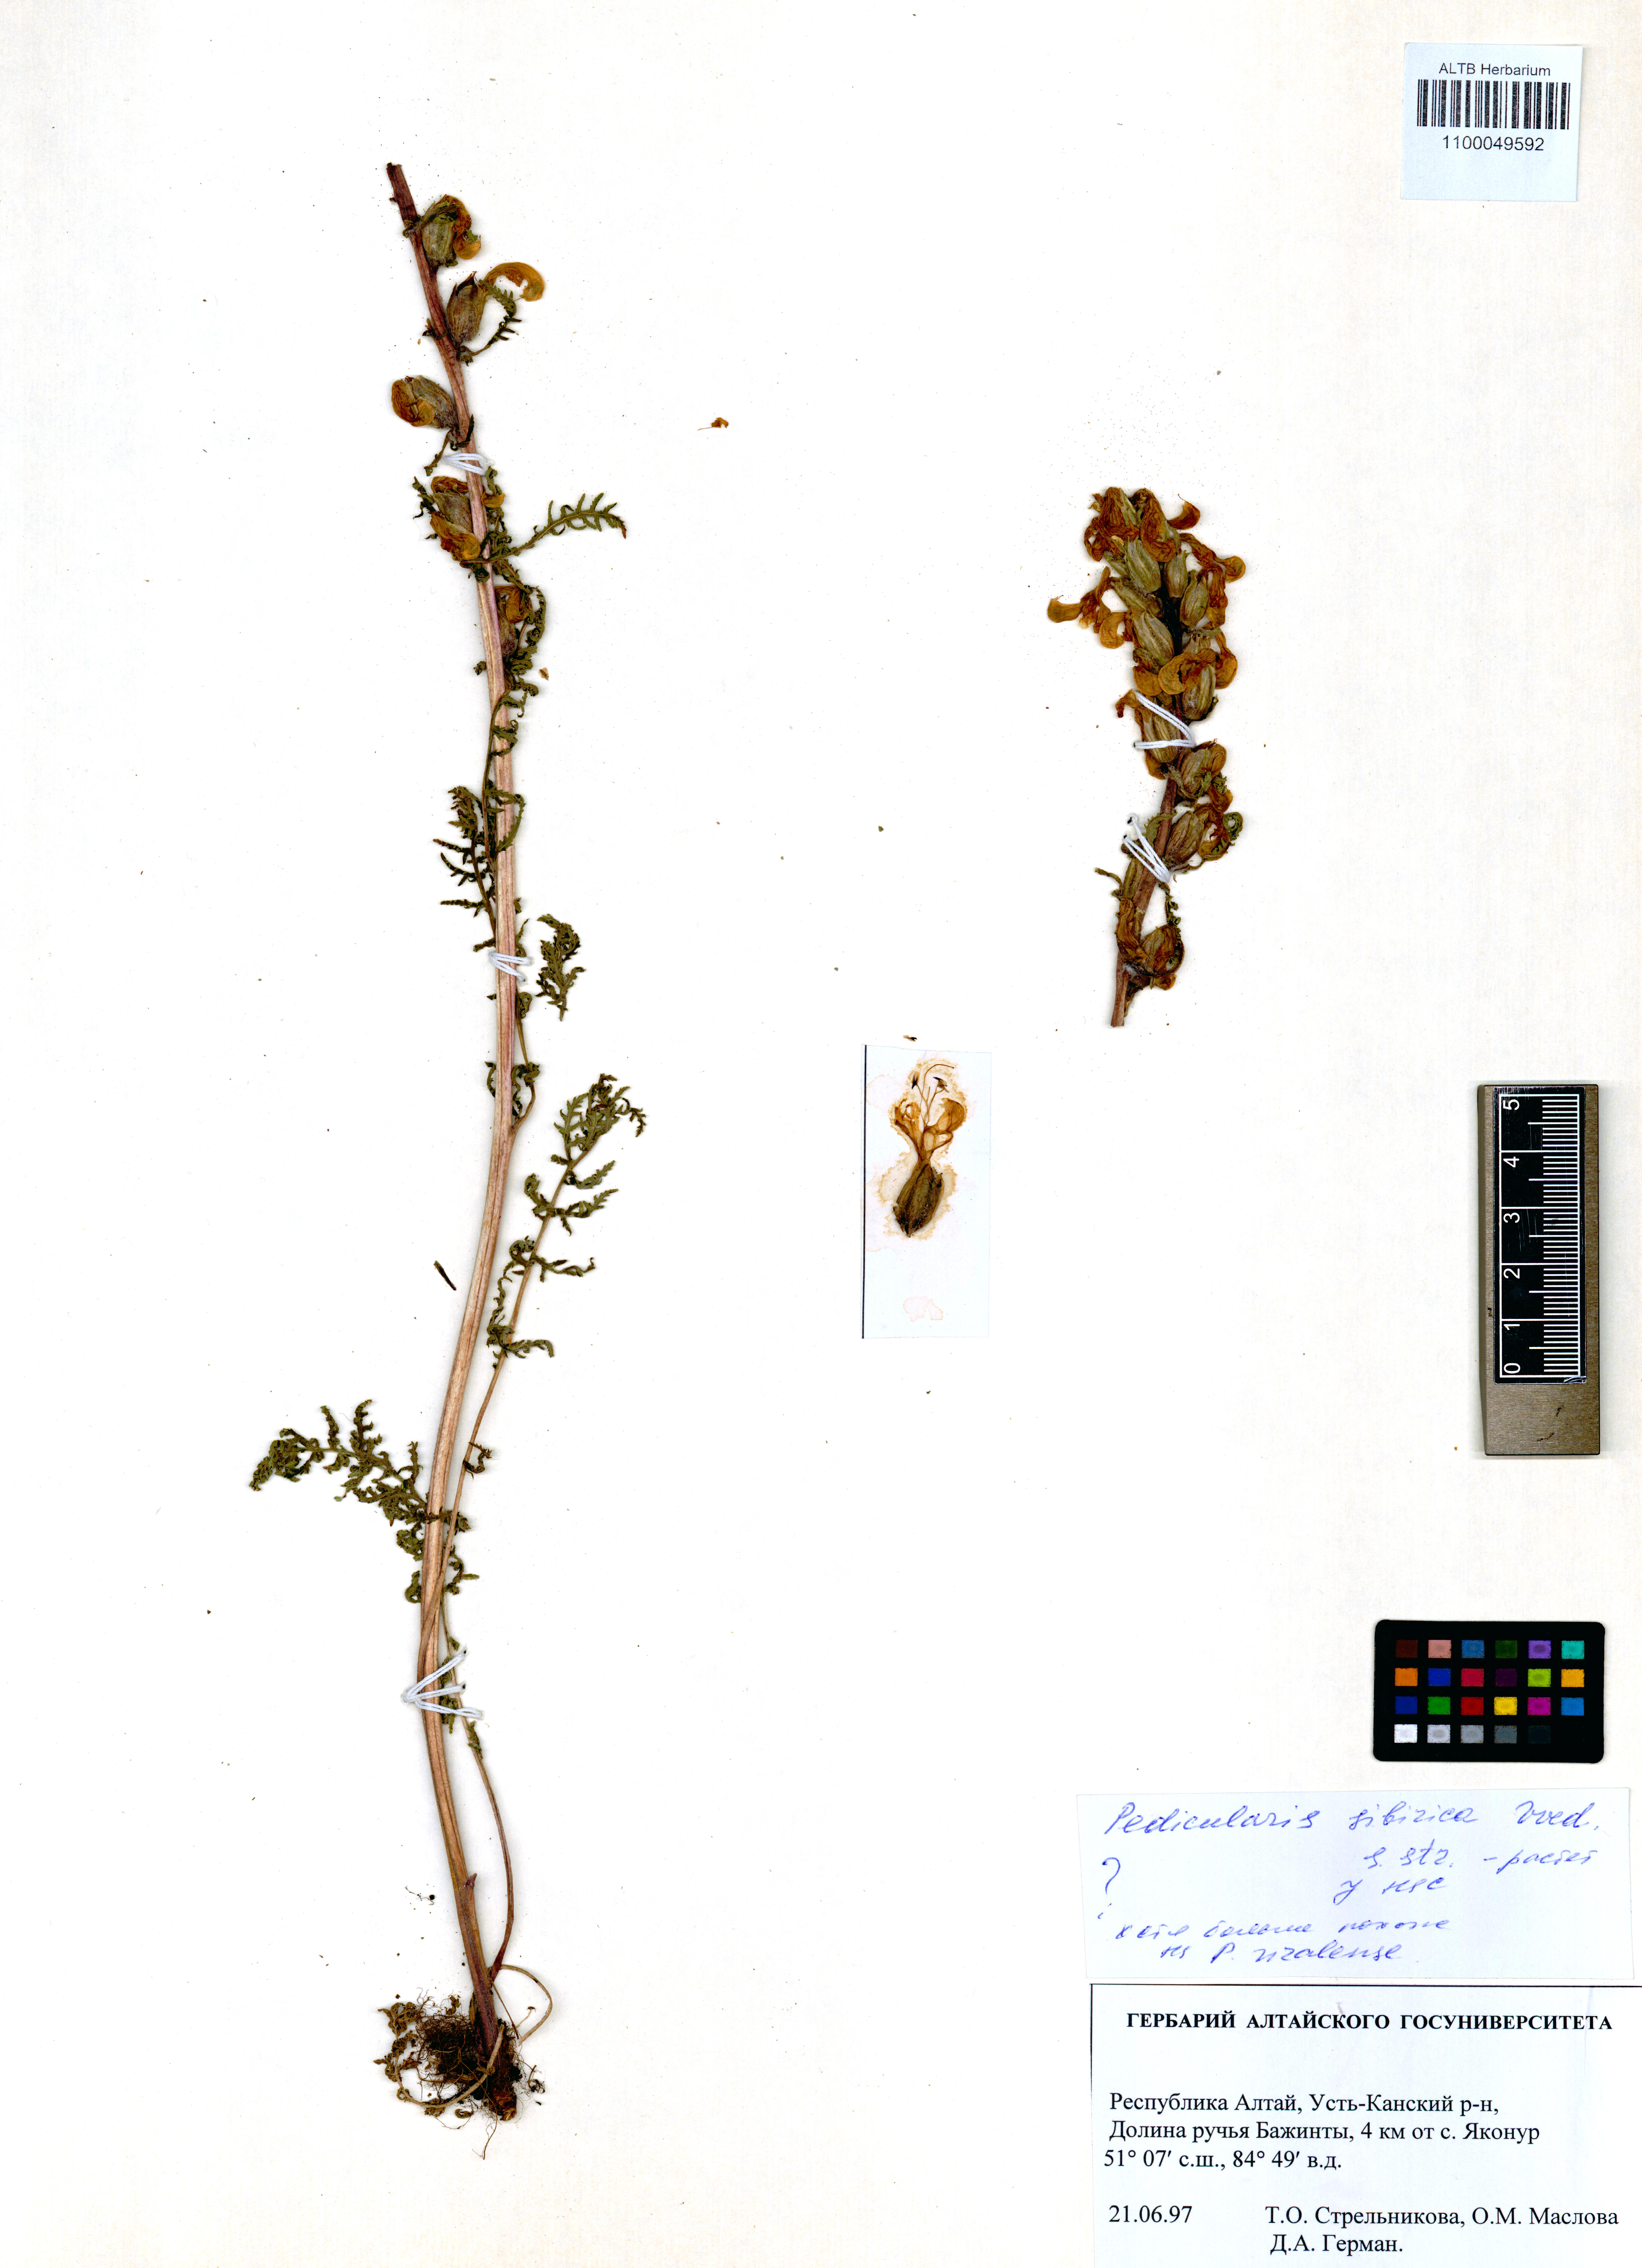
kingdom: Plantae
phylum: Tracheophyta
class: Magnoliopsida
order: Lamiales
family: Orobanchaceae
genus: Pedicularis
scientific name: Pedicularis uralensis
